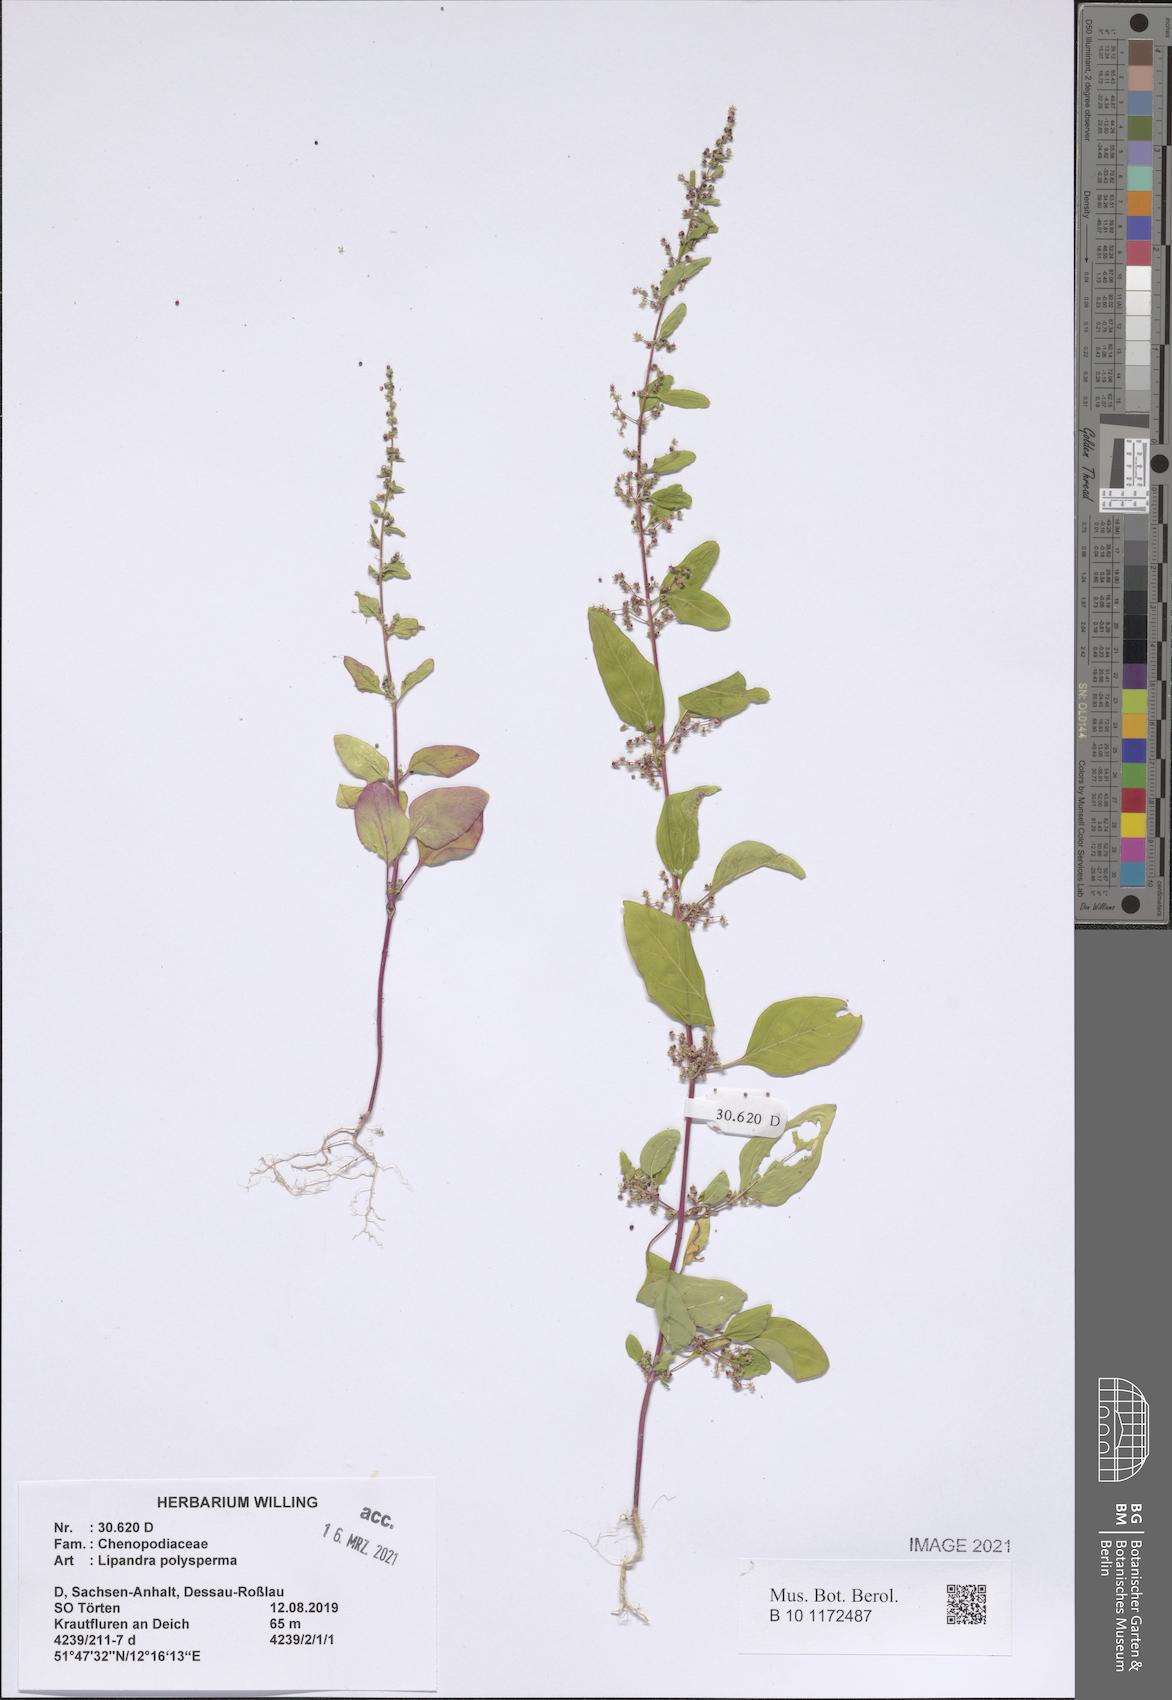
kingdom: Plantae
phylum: Tracheophyta
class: Magnoliopsida
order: Caryophyllales
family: Amaranthaceae
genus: Lipandra
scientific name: Lipandra polysperma
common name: Many-seed goosefoot
